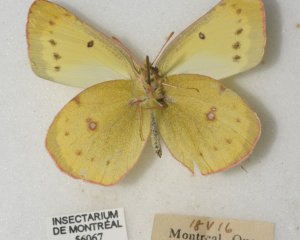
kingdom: Animalia
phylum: Arthropoda
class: Insecta
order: Lepidoptera
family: Pieridae
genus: Colias
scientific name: Colias philodice
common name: Clouded Sulphur
